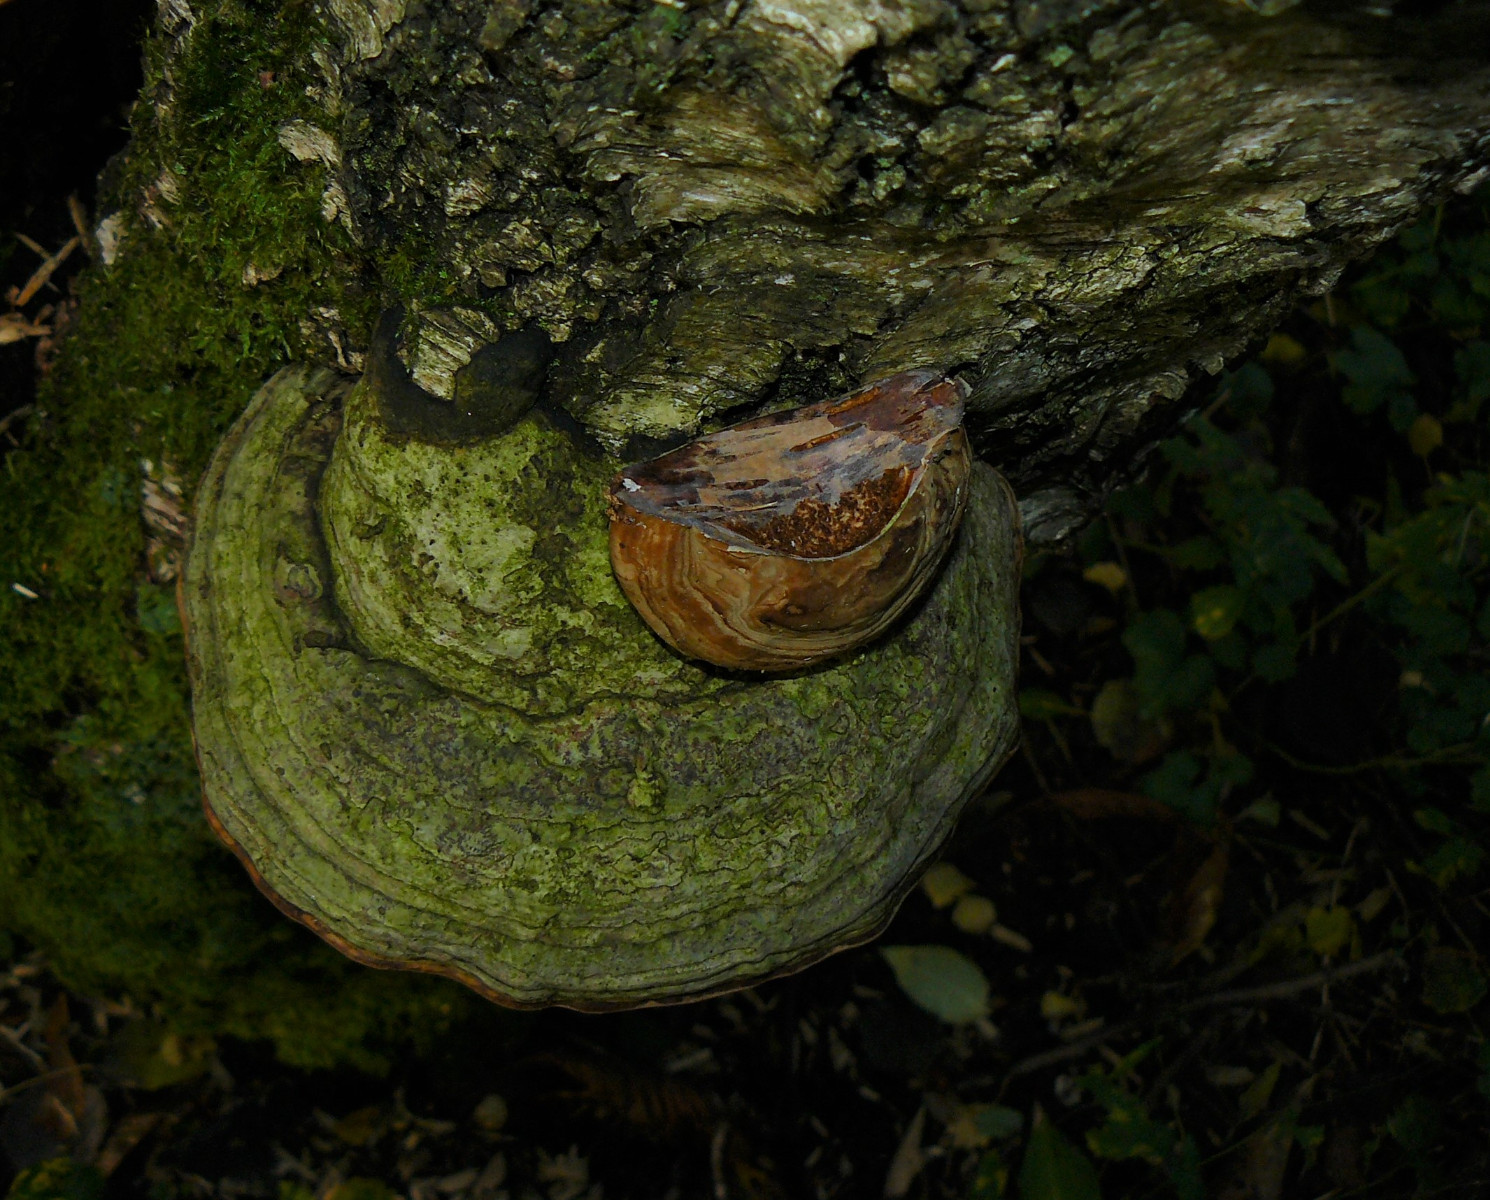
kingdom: Fungi
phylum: Basidiomycota
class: Agaricomycetes
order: Polyporales
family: Polyporaceae
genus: Fomes
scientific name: Fomes fomentarius
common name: tøndersvamp
